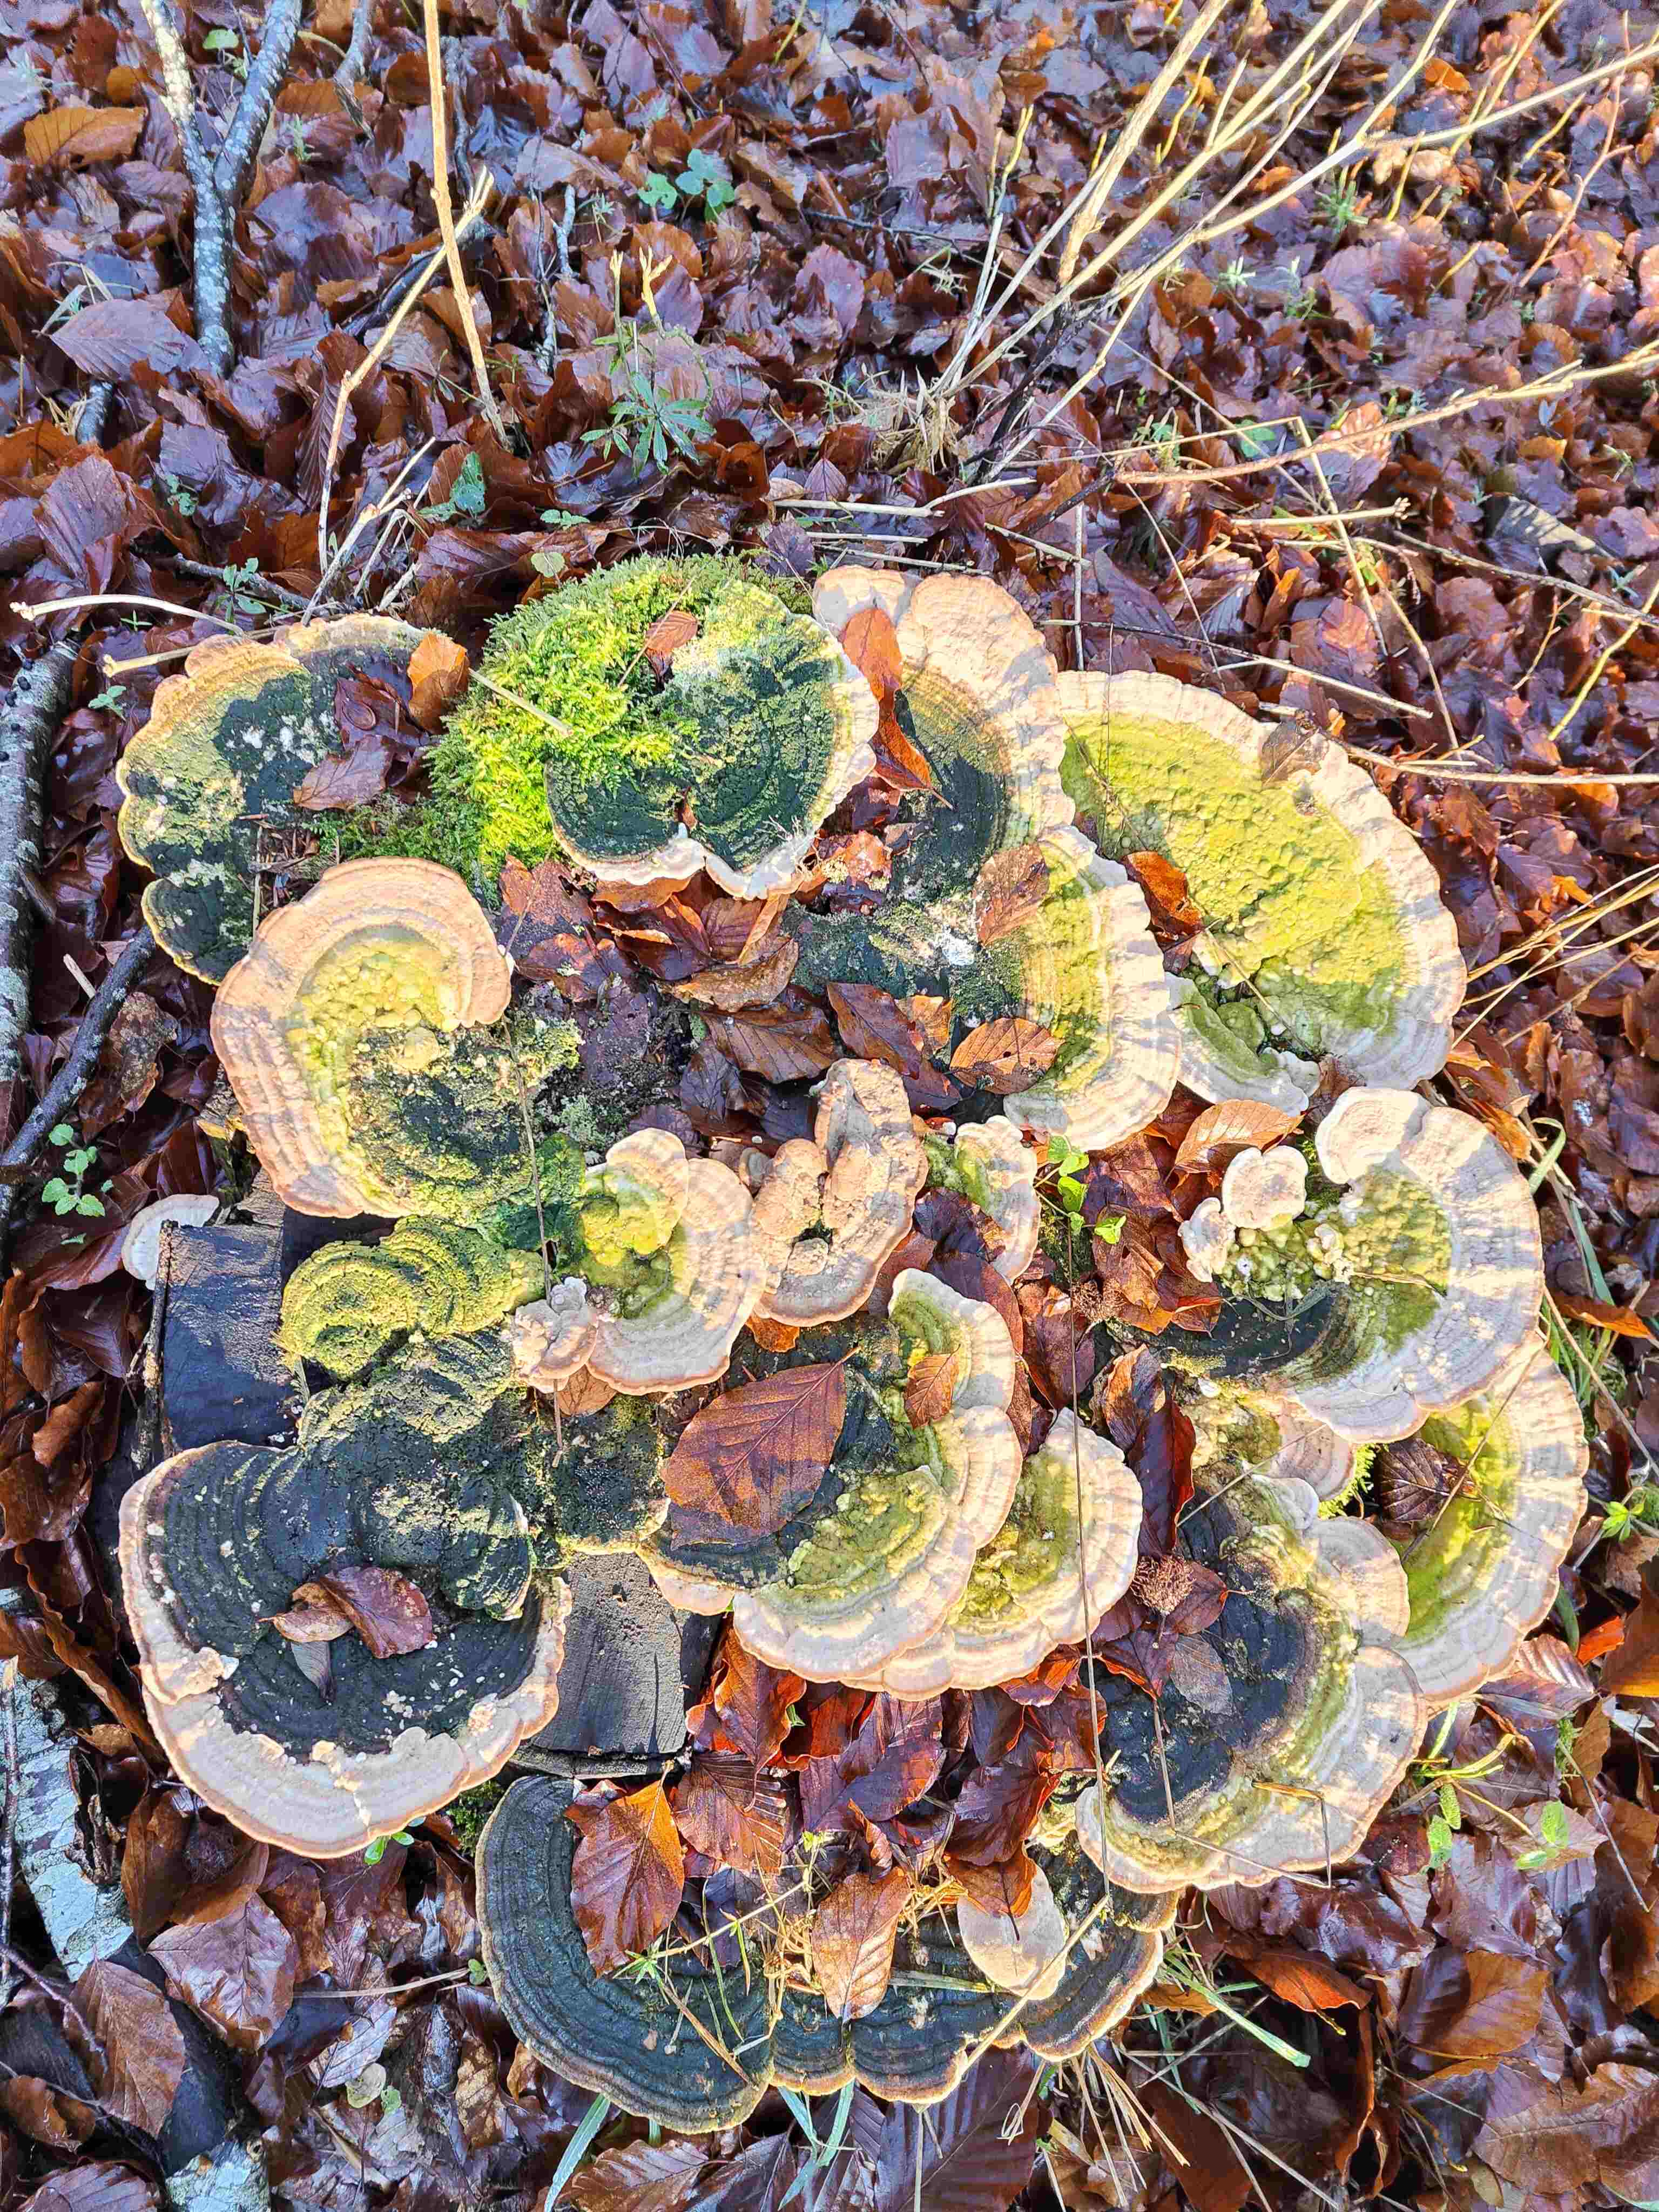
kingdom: Fungi
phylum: Basidiomycota
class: Agaricomycetes
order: Polyporales
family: Polyporaceae
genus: Trametes
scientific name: Trametes gibbosa
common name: puklet læderporesvamp
